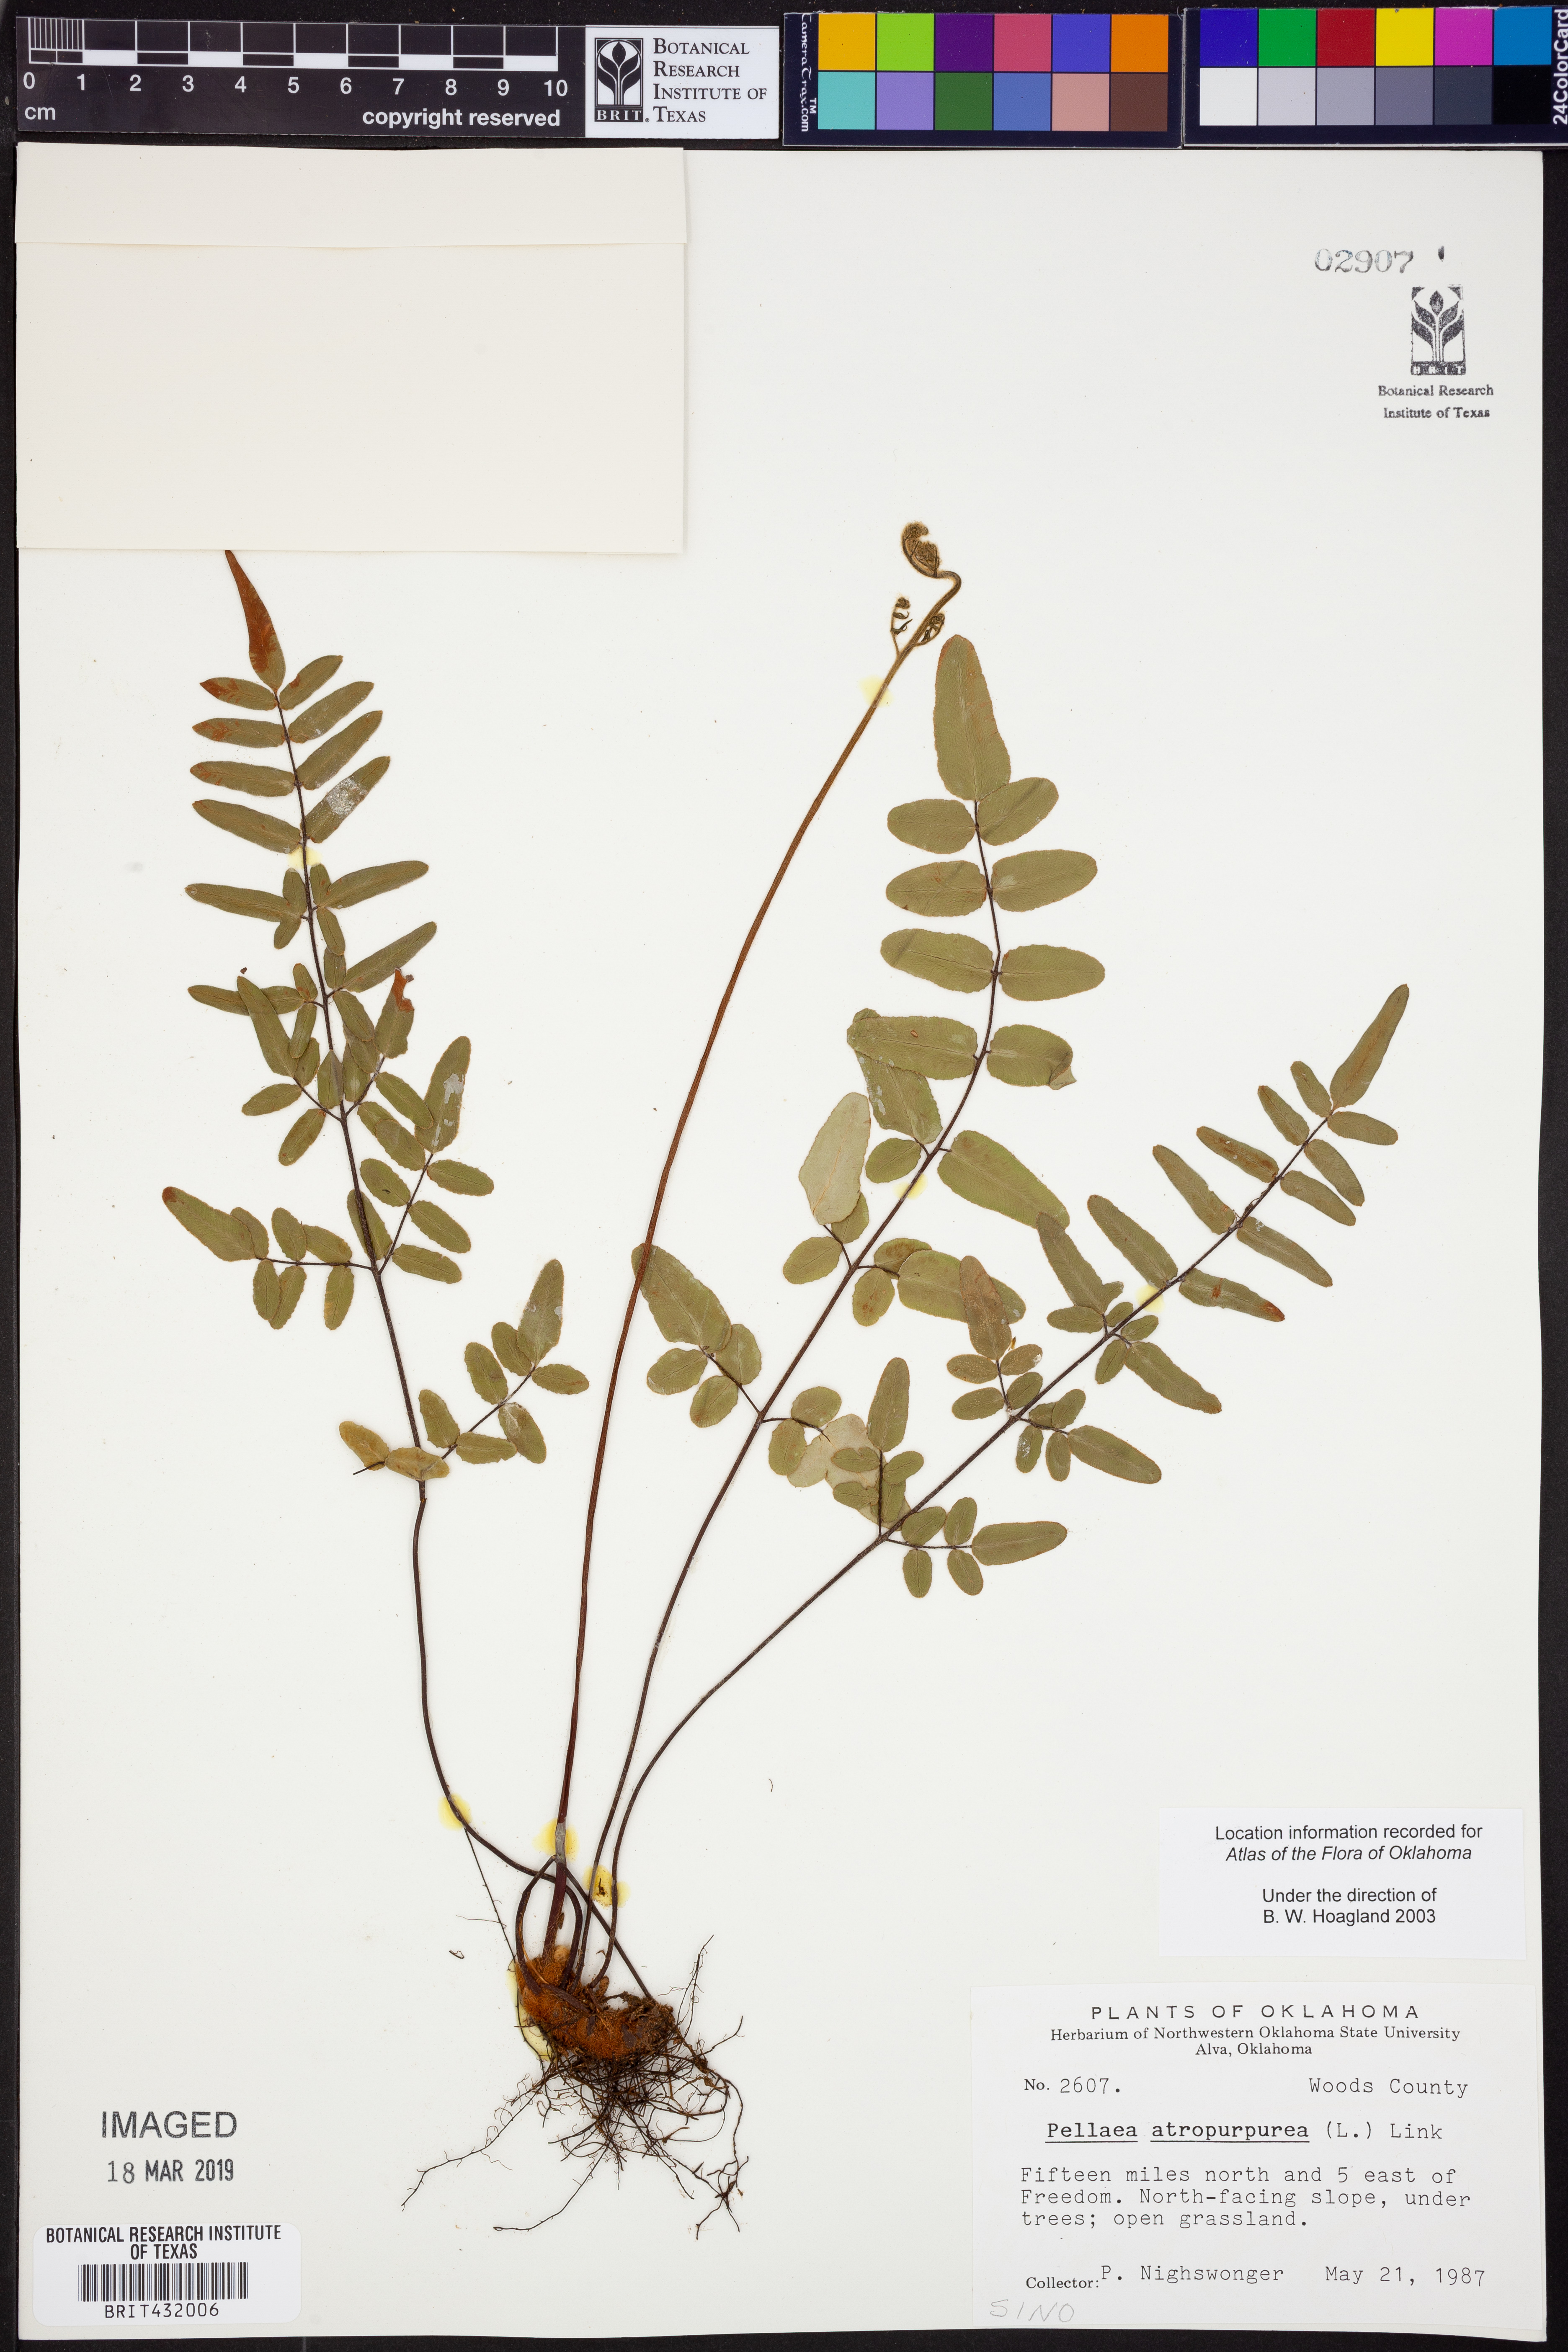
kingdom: Plantae
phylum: Tracheophyta
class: Polypodiopsida
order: Polypodiales
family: Pteridaceae
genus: Pellaea
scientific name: Pellaea atropurpurea
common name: Hairy cliffbrake
